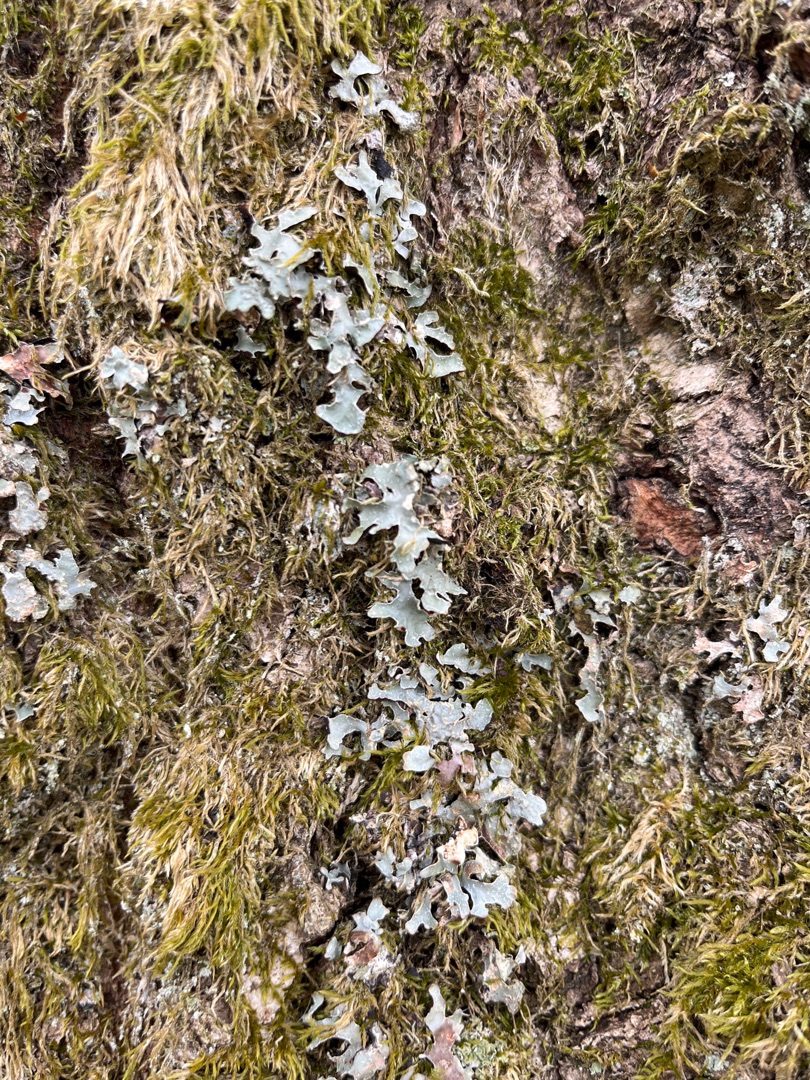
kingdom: Fungi
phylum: Ascomycota
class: Lecanoromycetes
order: Lecanorales
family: Parmeliaceae
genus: Parmelia
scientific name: Parmelia sulcata
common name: Rynket skållav
